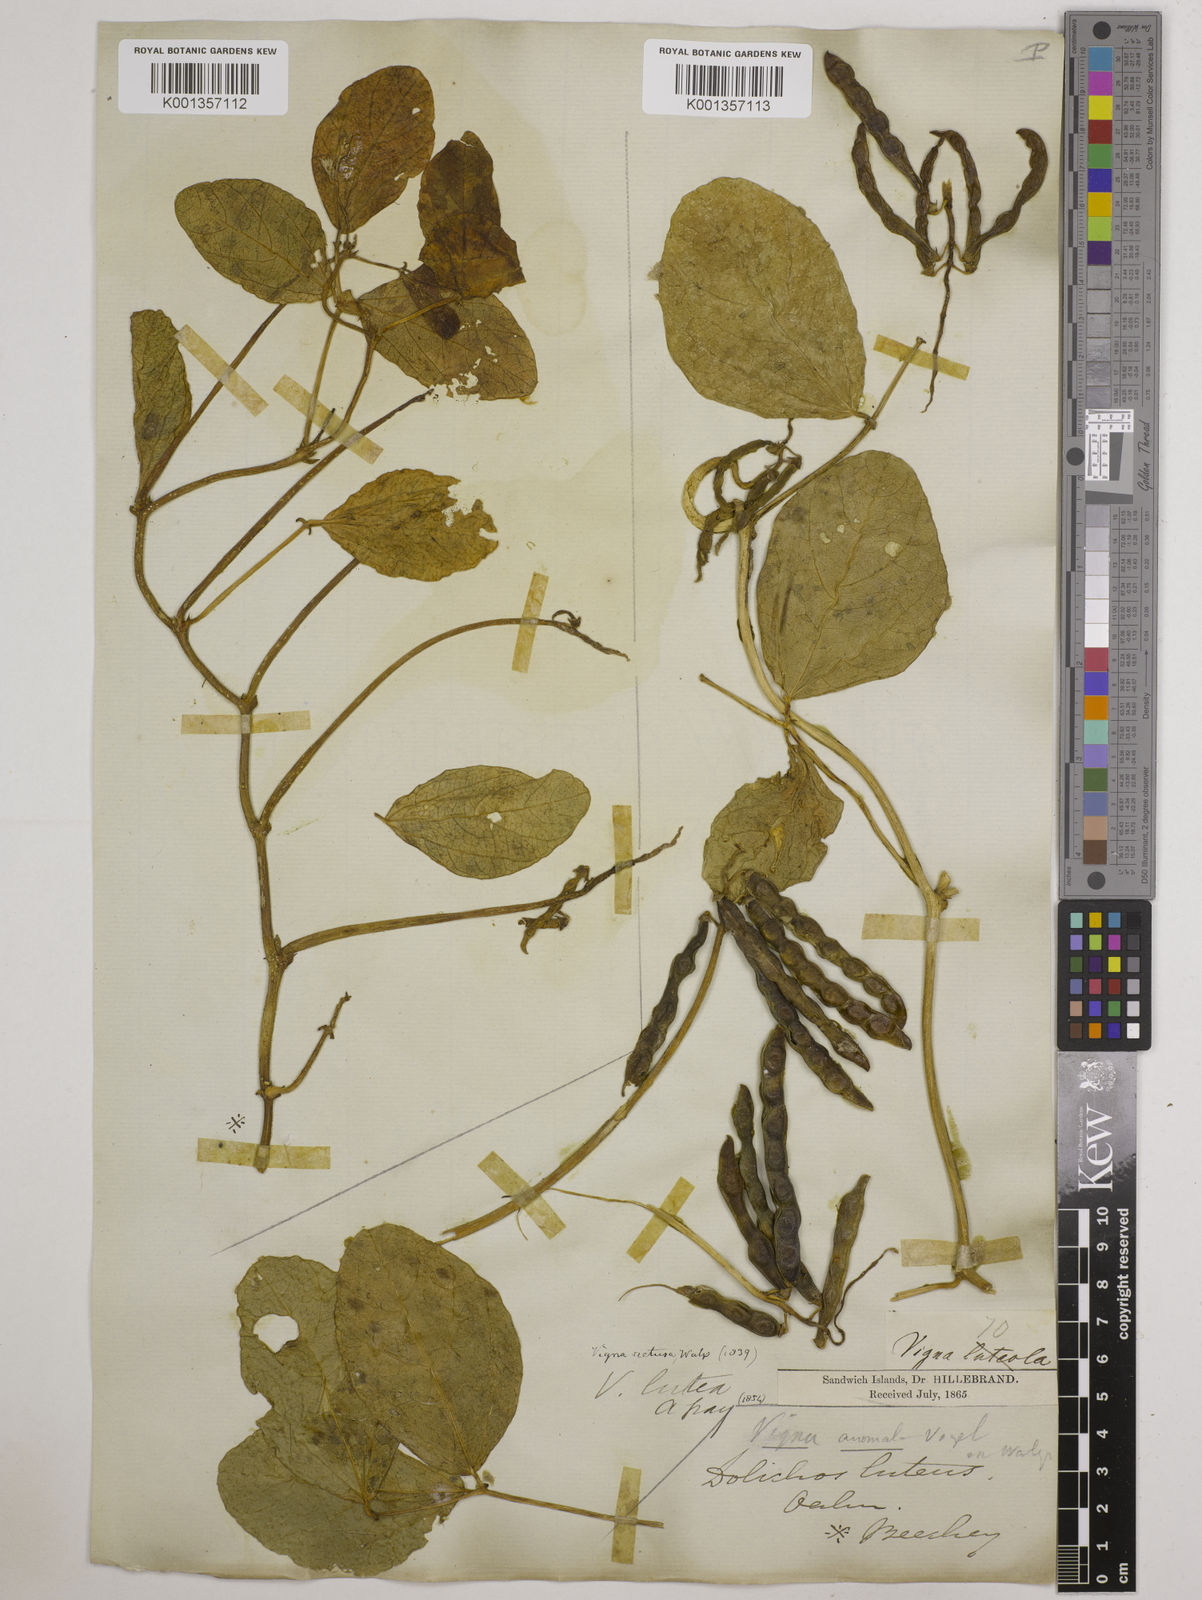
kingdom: Plantae
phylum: Tracheophyta
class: Magnoliopsida
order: Fabales
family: Fabaceae
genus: Vigna
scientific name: Vigna marina
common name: Dune-bean
